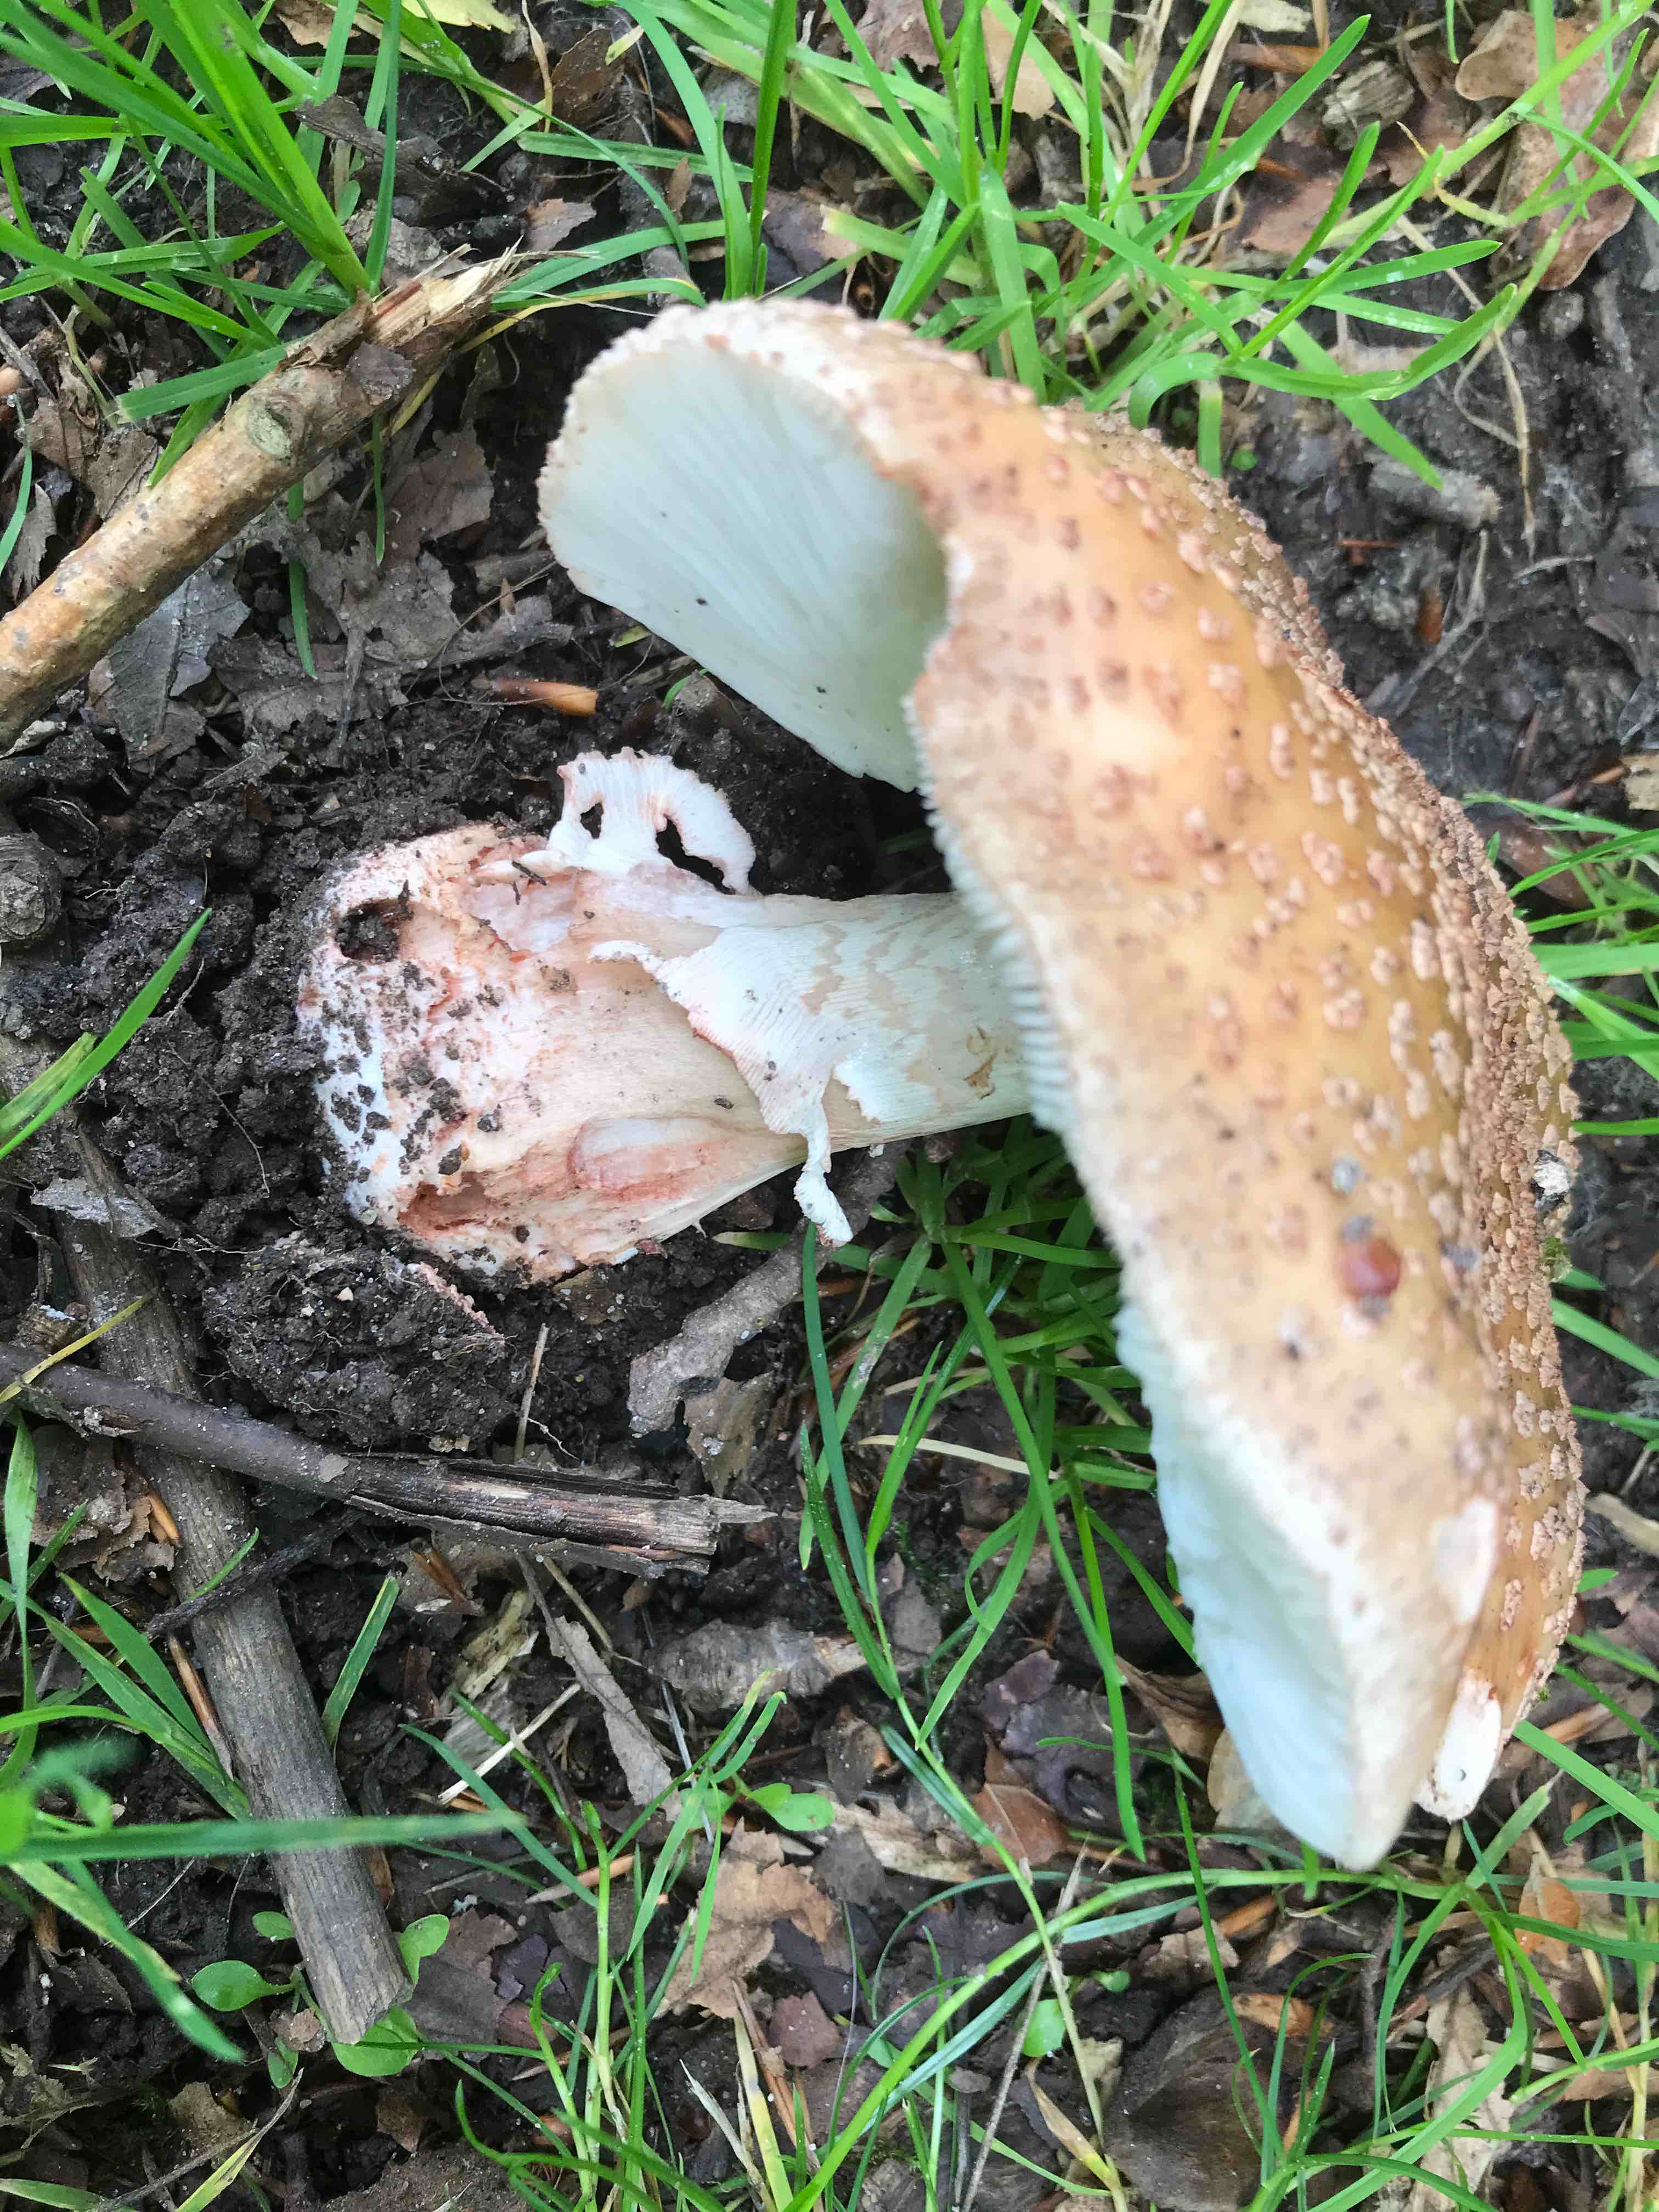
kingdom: Fungi
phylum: Basidiomycota
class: Agaricomycetes
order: Agaricales
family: Amanitaceae
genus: Amanita
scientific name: Amanita rubescens
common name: rødmende fluesvamp
